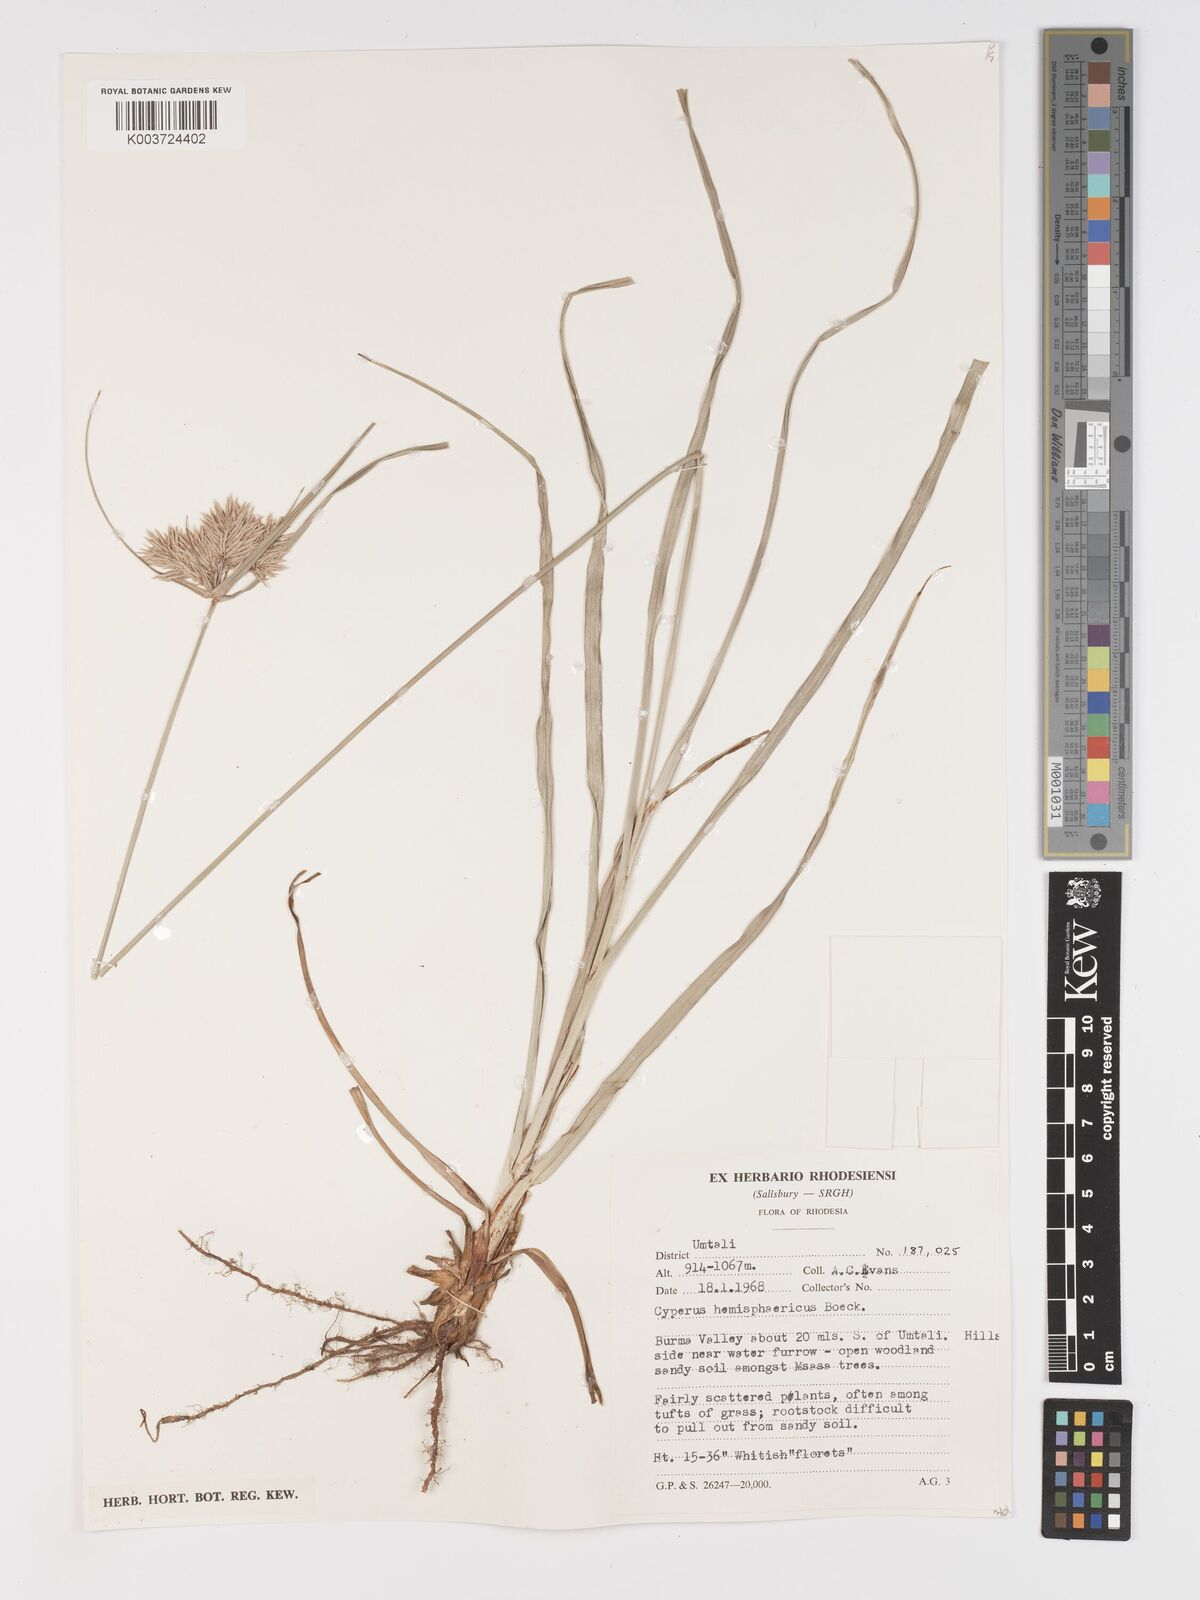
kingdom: Plantae
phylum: Tracheophyta
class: Liliopsida
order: Poales
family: Cyperaceae
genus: Cyperus
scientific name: Cyperus hemisphaericus
